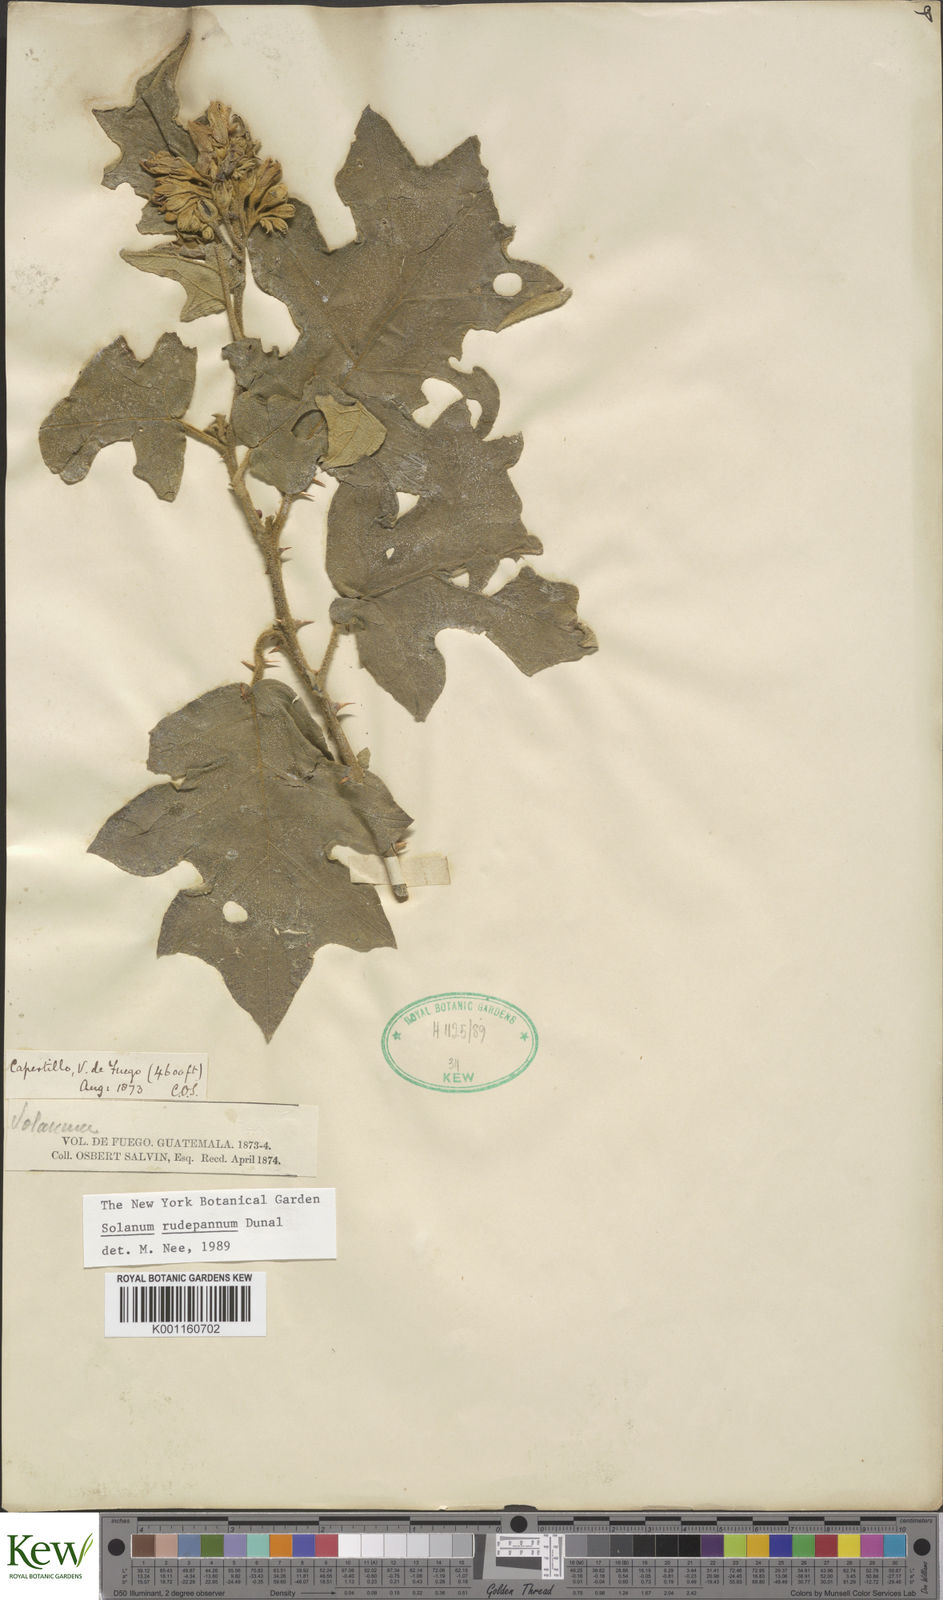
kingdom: Plantae
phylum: Tracheophyta
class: Magnoliopsida
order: Solanales
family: Solanaceae
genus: Solanum
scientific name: Solanum rude-pannum
